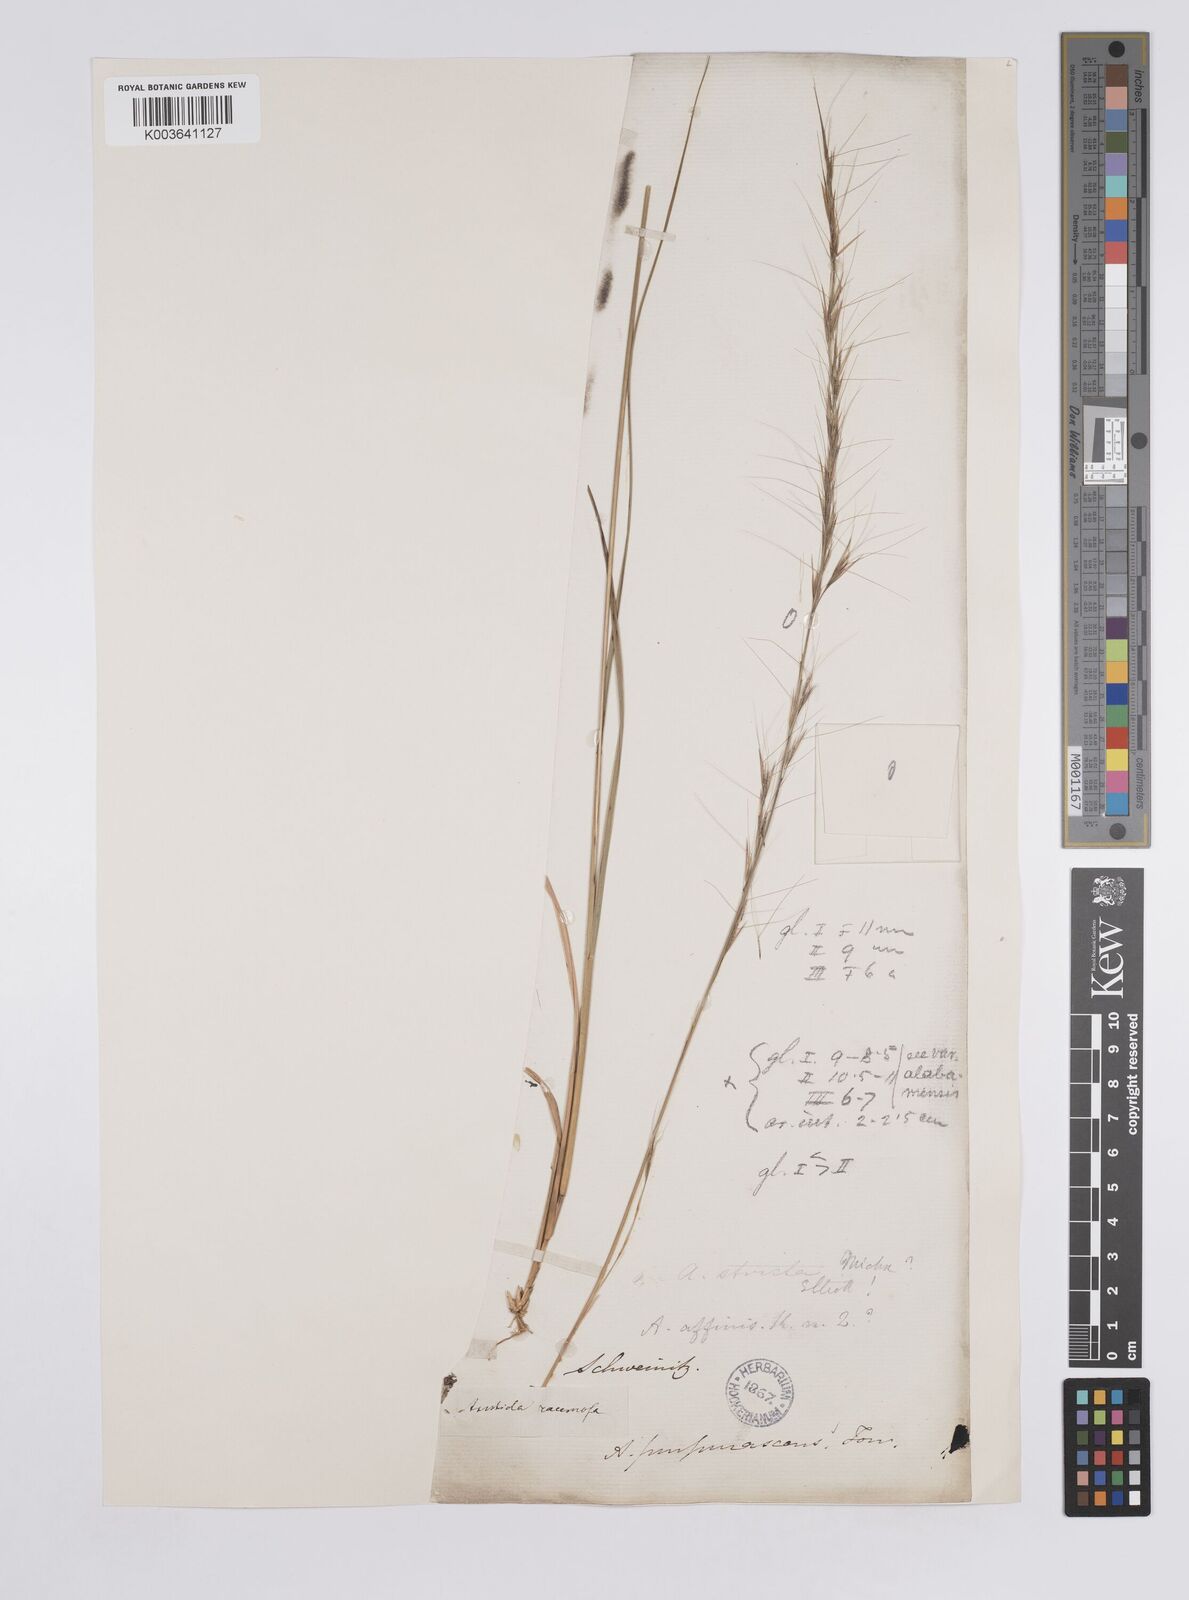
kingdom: Plantae
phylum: Tracheophyta
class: Liliopsida
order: Poales
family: Poaceae
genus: Aristida
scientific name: Aristida purpurascens
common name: Arrow-feather
